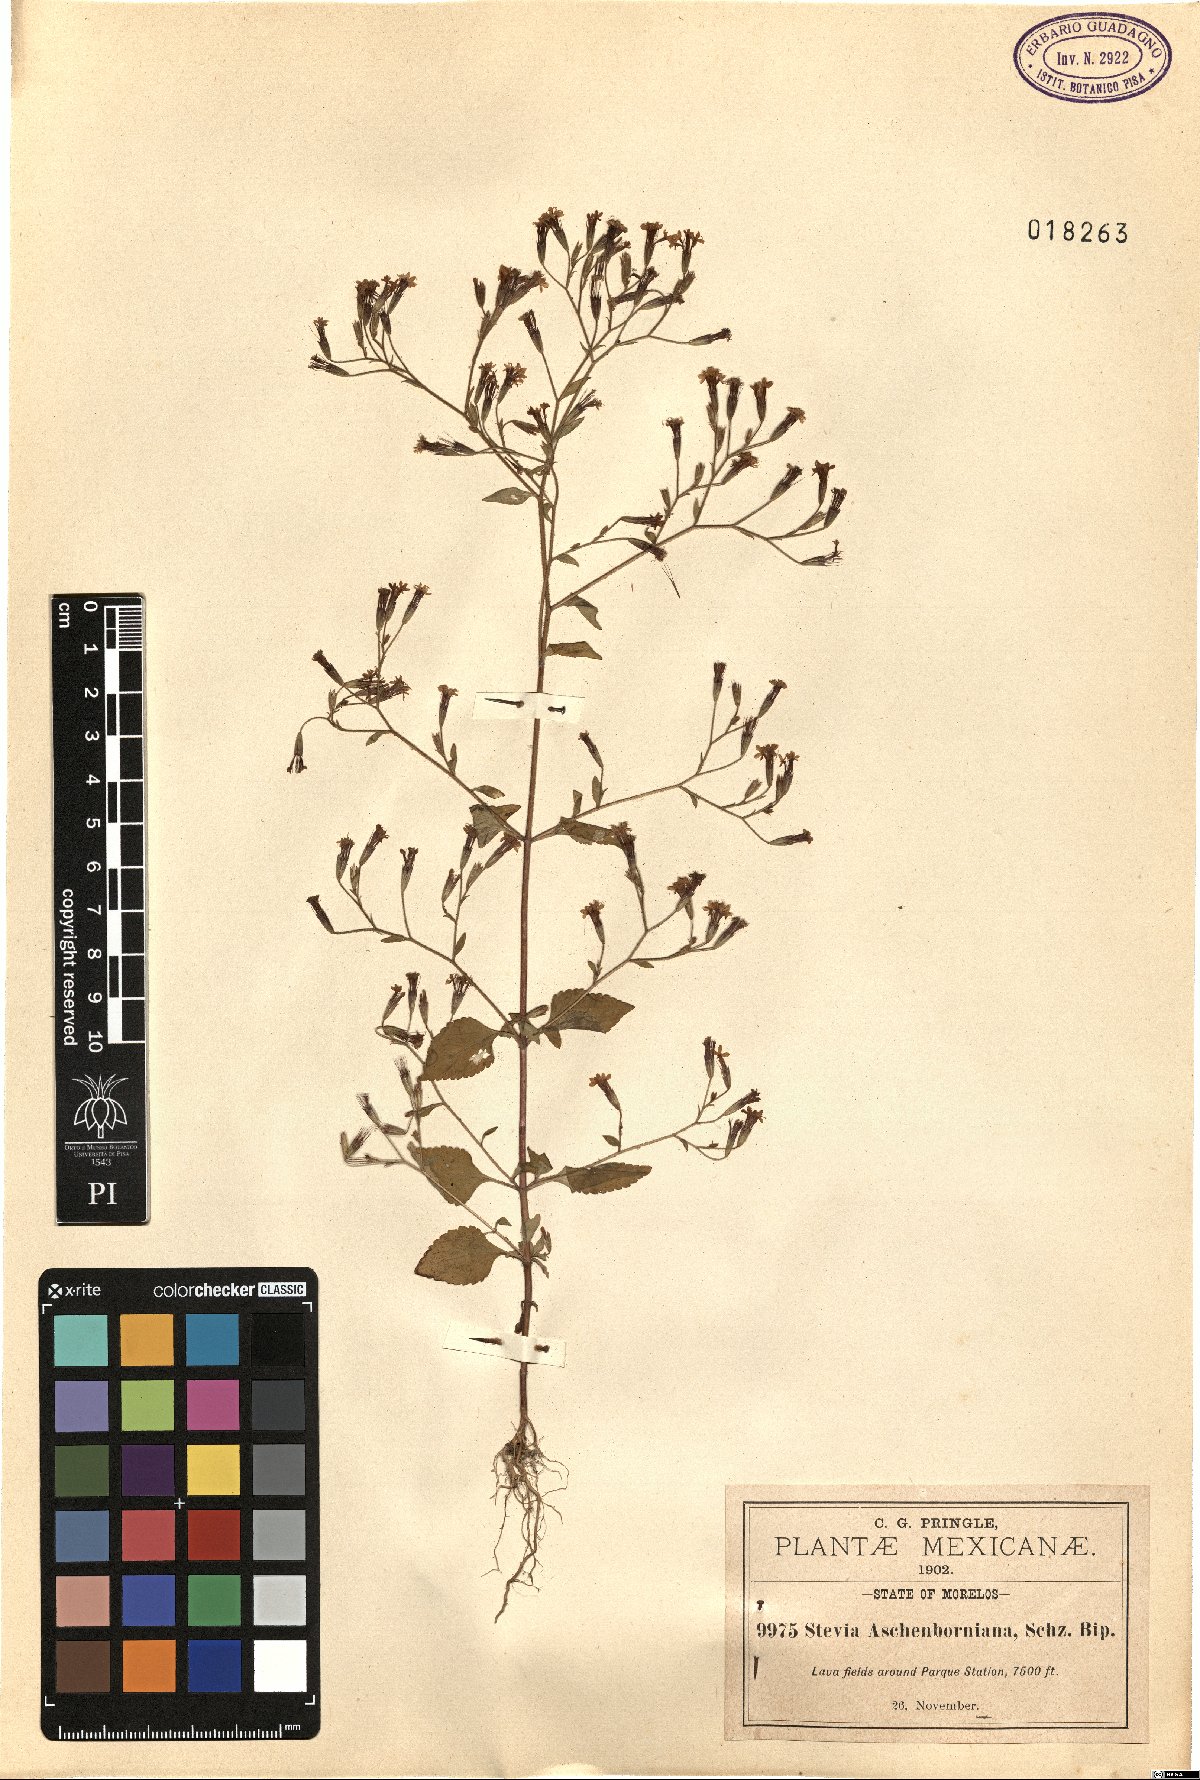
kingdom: Plantae
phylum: Tracheophyta
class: Magnoliopsida
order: Asterales
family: Asteraceae
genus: Stevia
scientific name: Stevia aschenborniana
